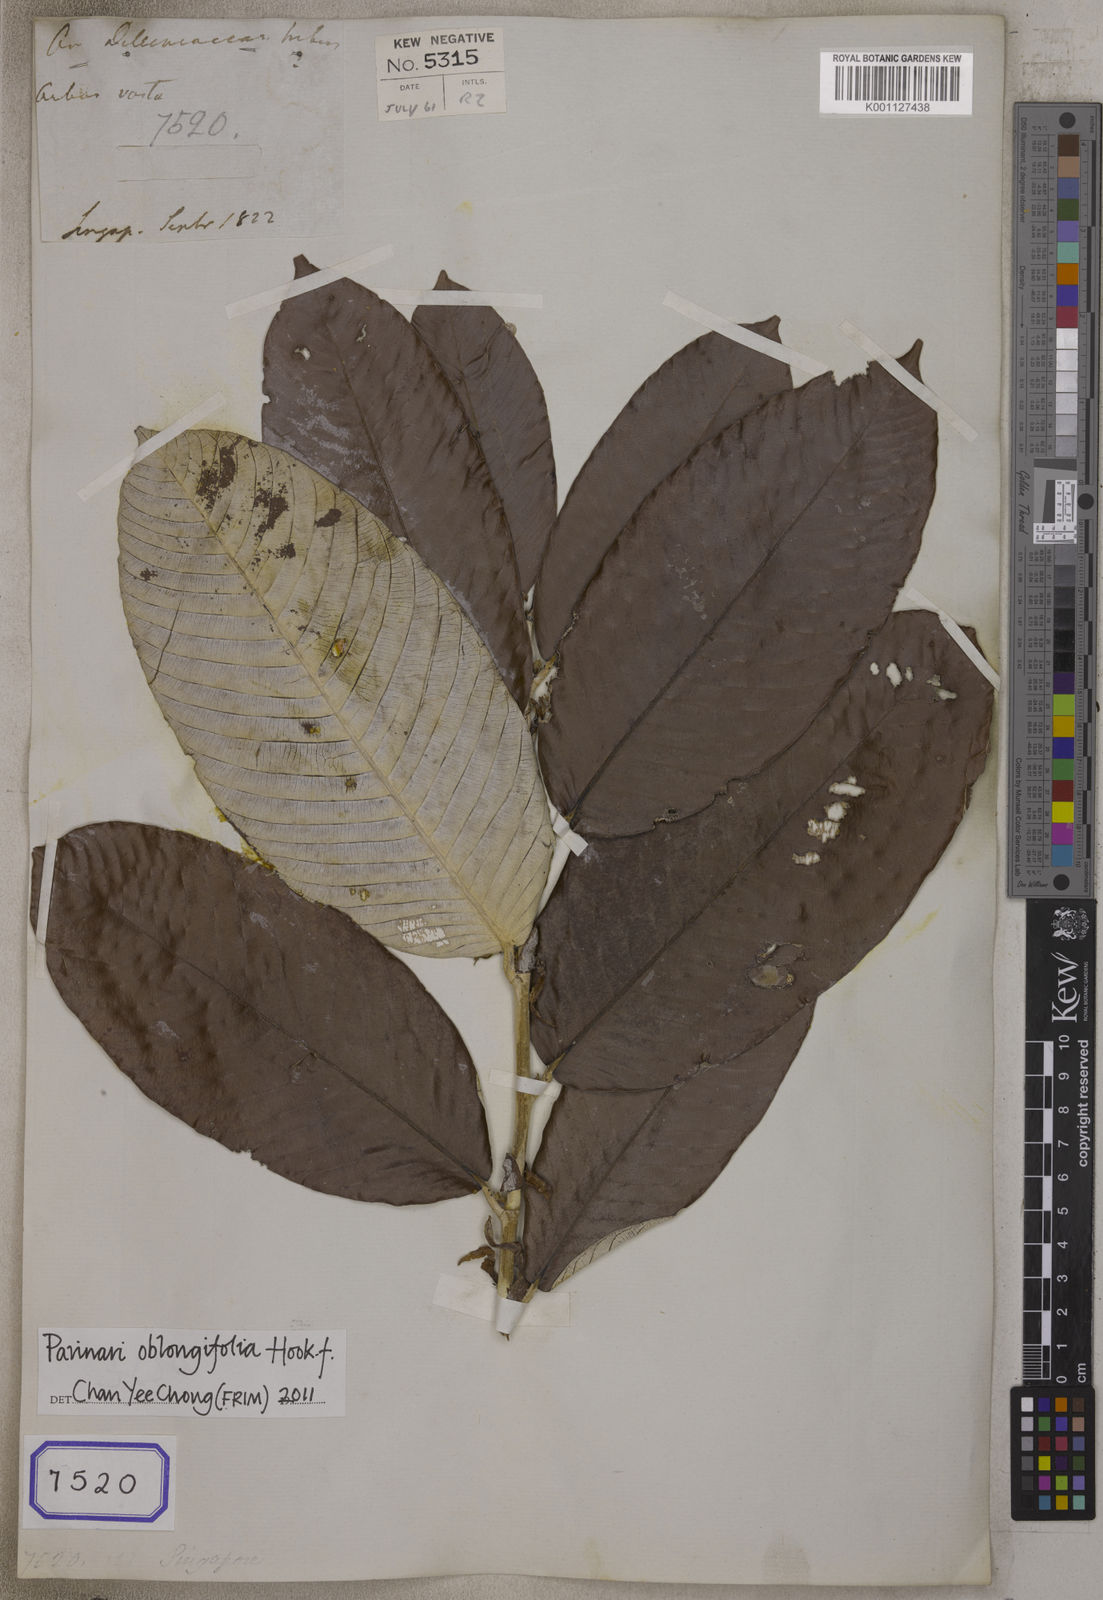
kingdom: Plantae
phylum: Tracheophyta
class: Liliopsida
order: Poales
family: Poaceae
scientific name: Poaceae
